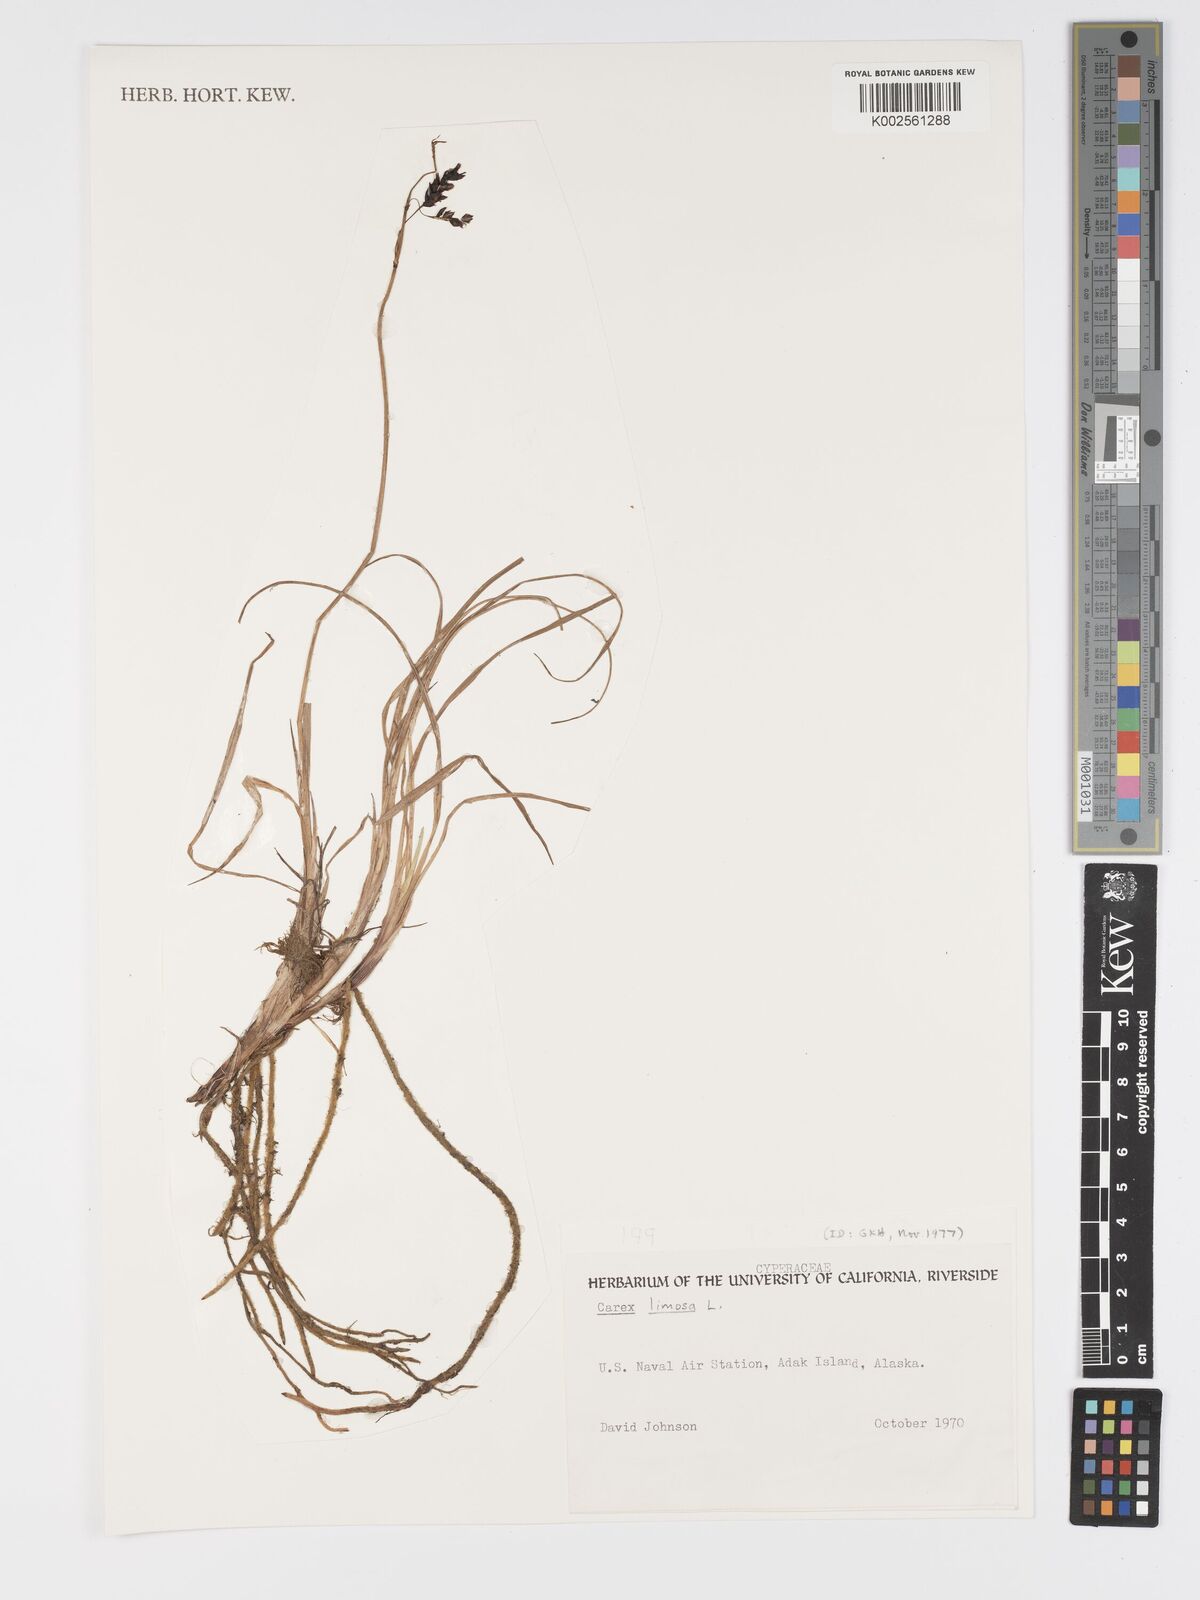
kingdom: Plantae
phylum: Tracheophyta
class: Liliopsida
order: Poales
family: Cyperaceae
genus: Carex
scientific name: Carex limosa
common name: Bog sedge
